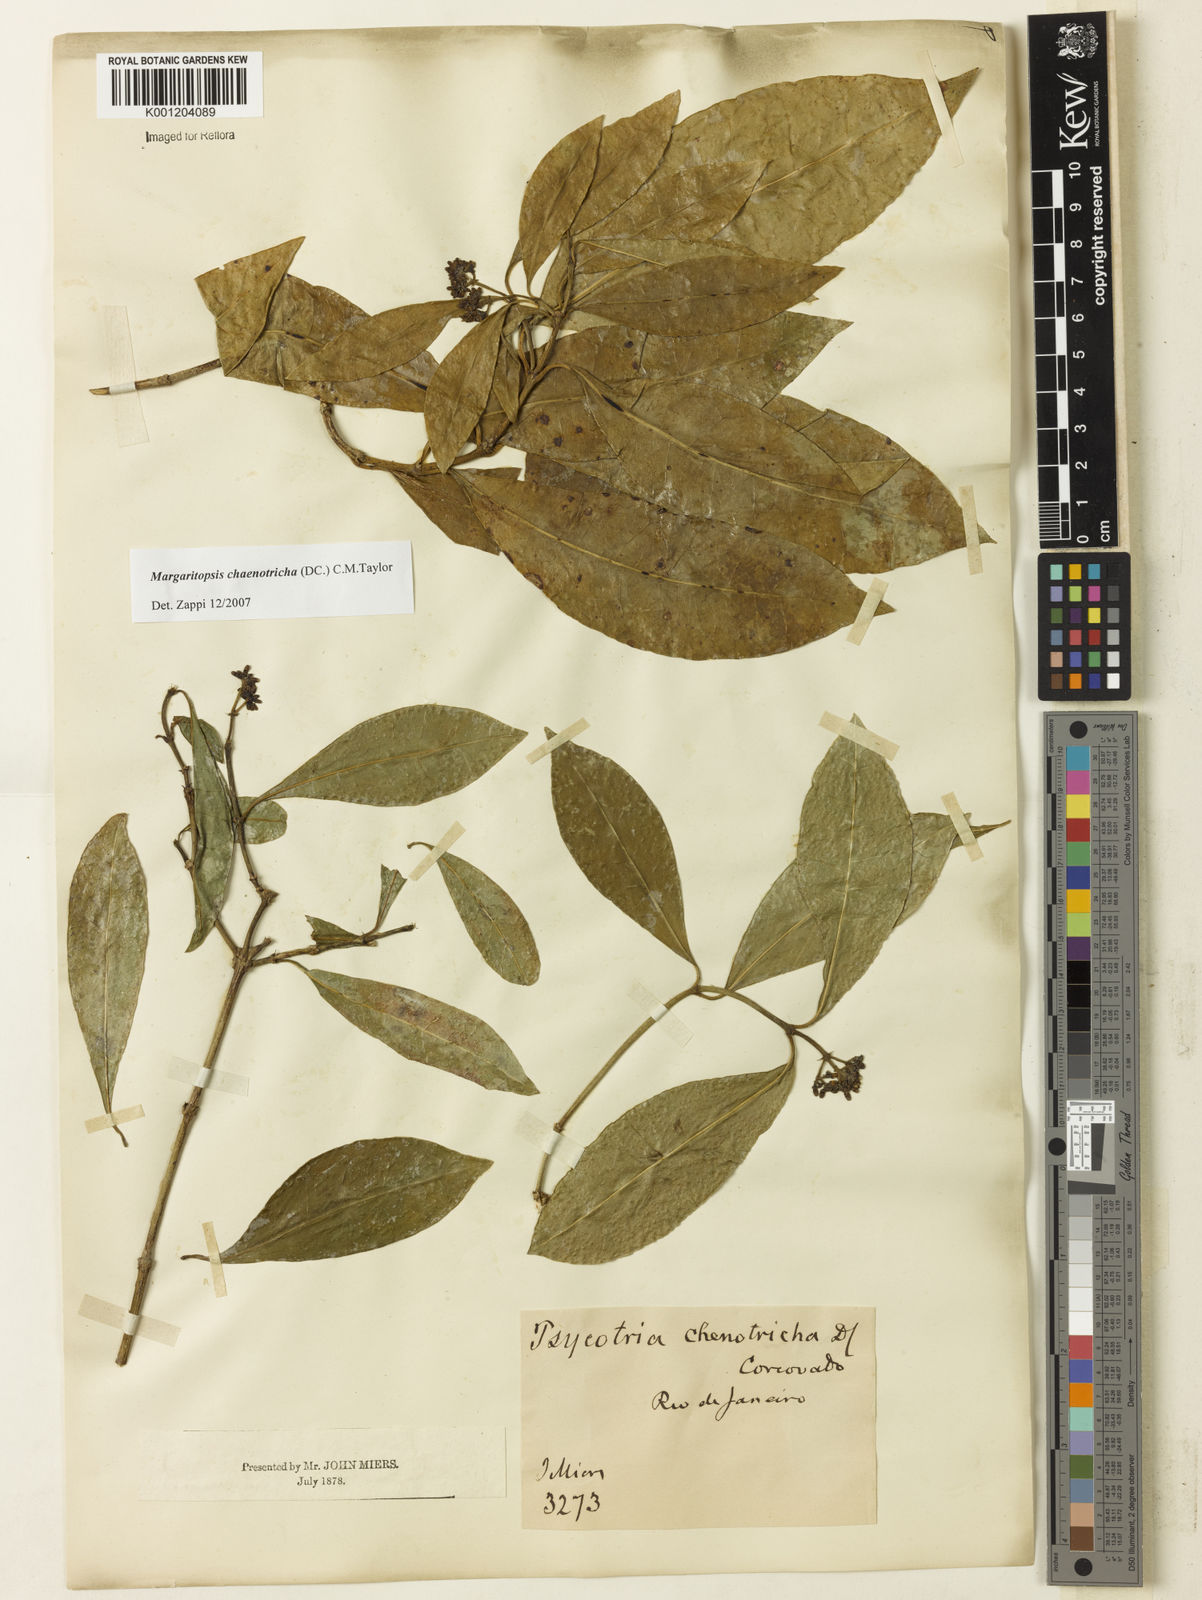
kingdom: Plantae
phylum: Tracheophyta
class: Magnoliopsida
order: Gentianales
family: Rubiaceae
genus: Eumachia
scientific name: Eumachia chaenotricha
